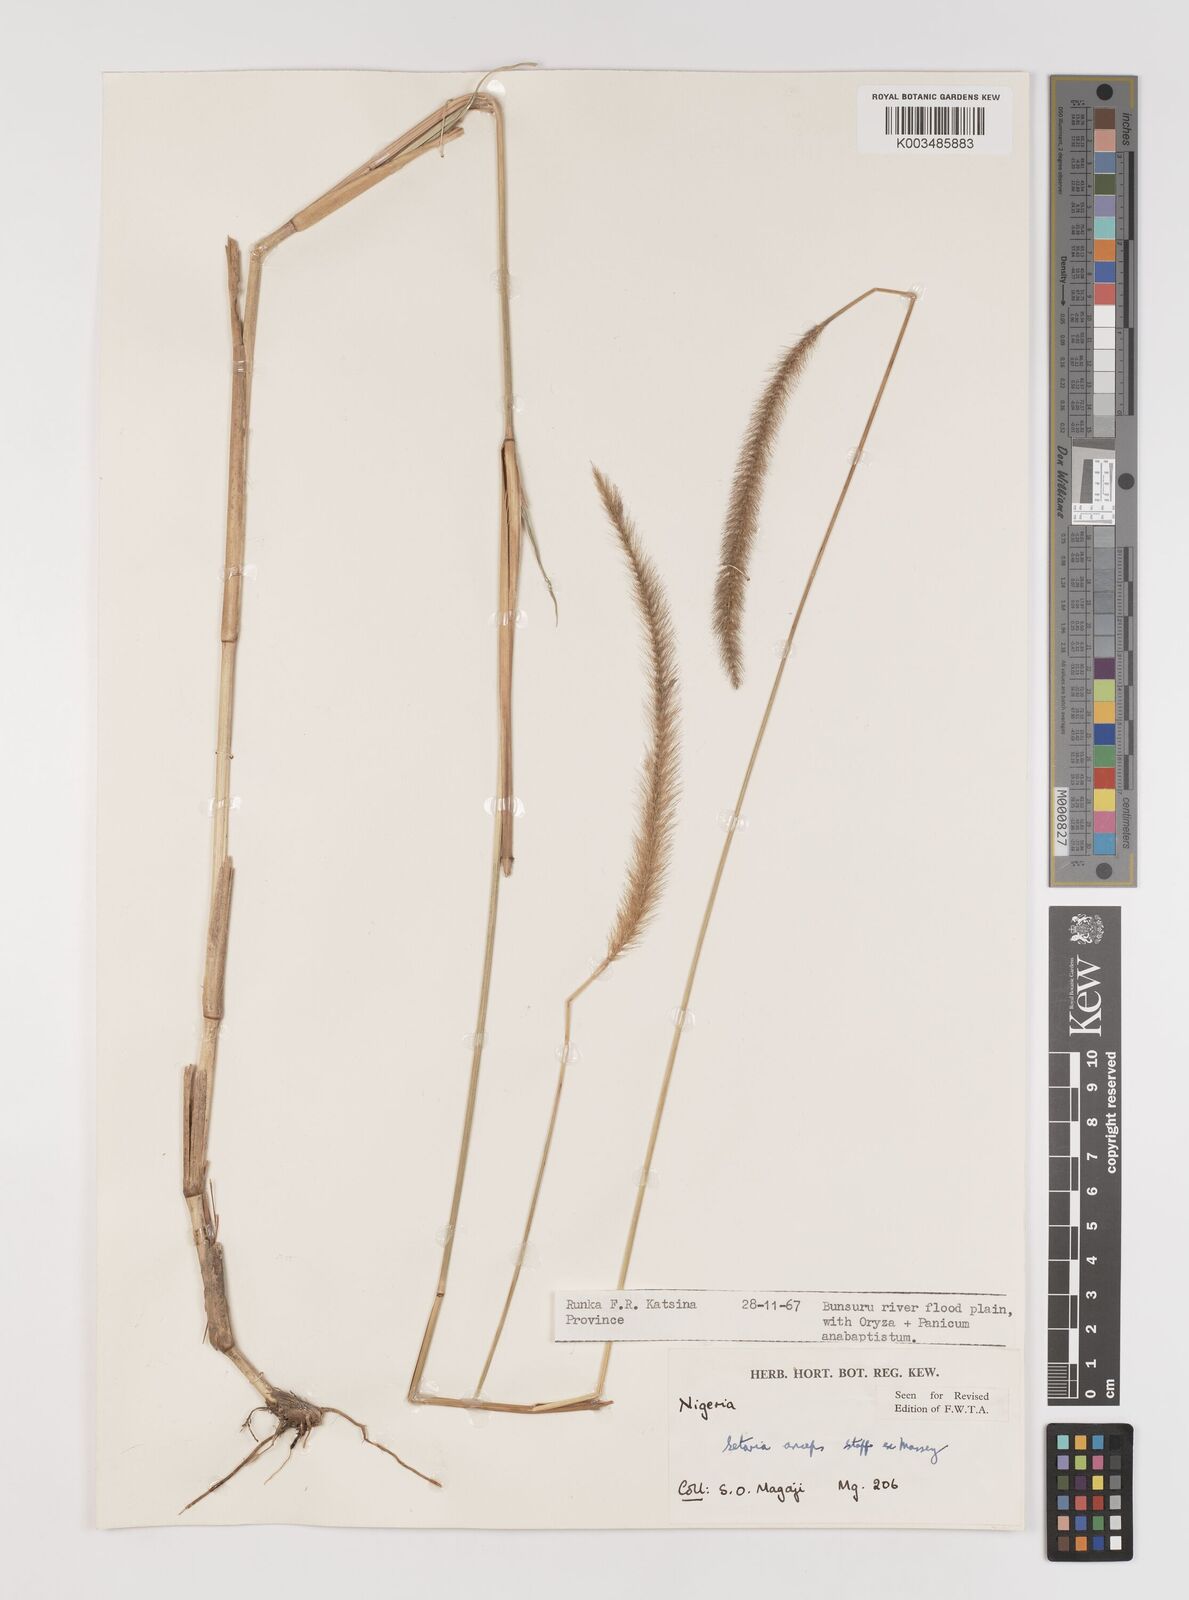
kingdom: Plantae
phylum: Tracheophyta
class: Liliopsida
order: Poales
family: Poaceae
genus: Setaria
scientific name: Setaria sphacelata
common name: African bristlegrass
